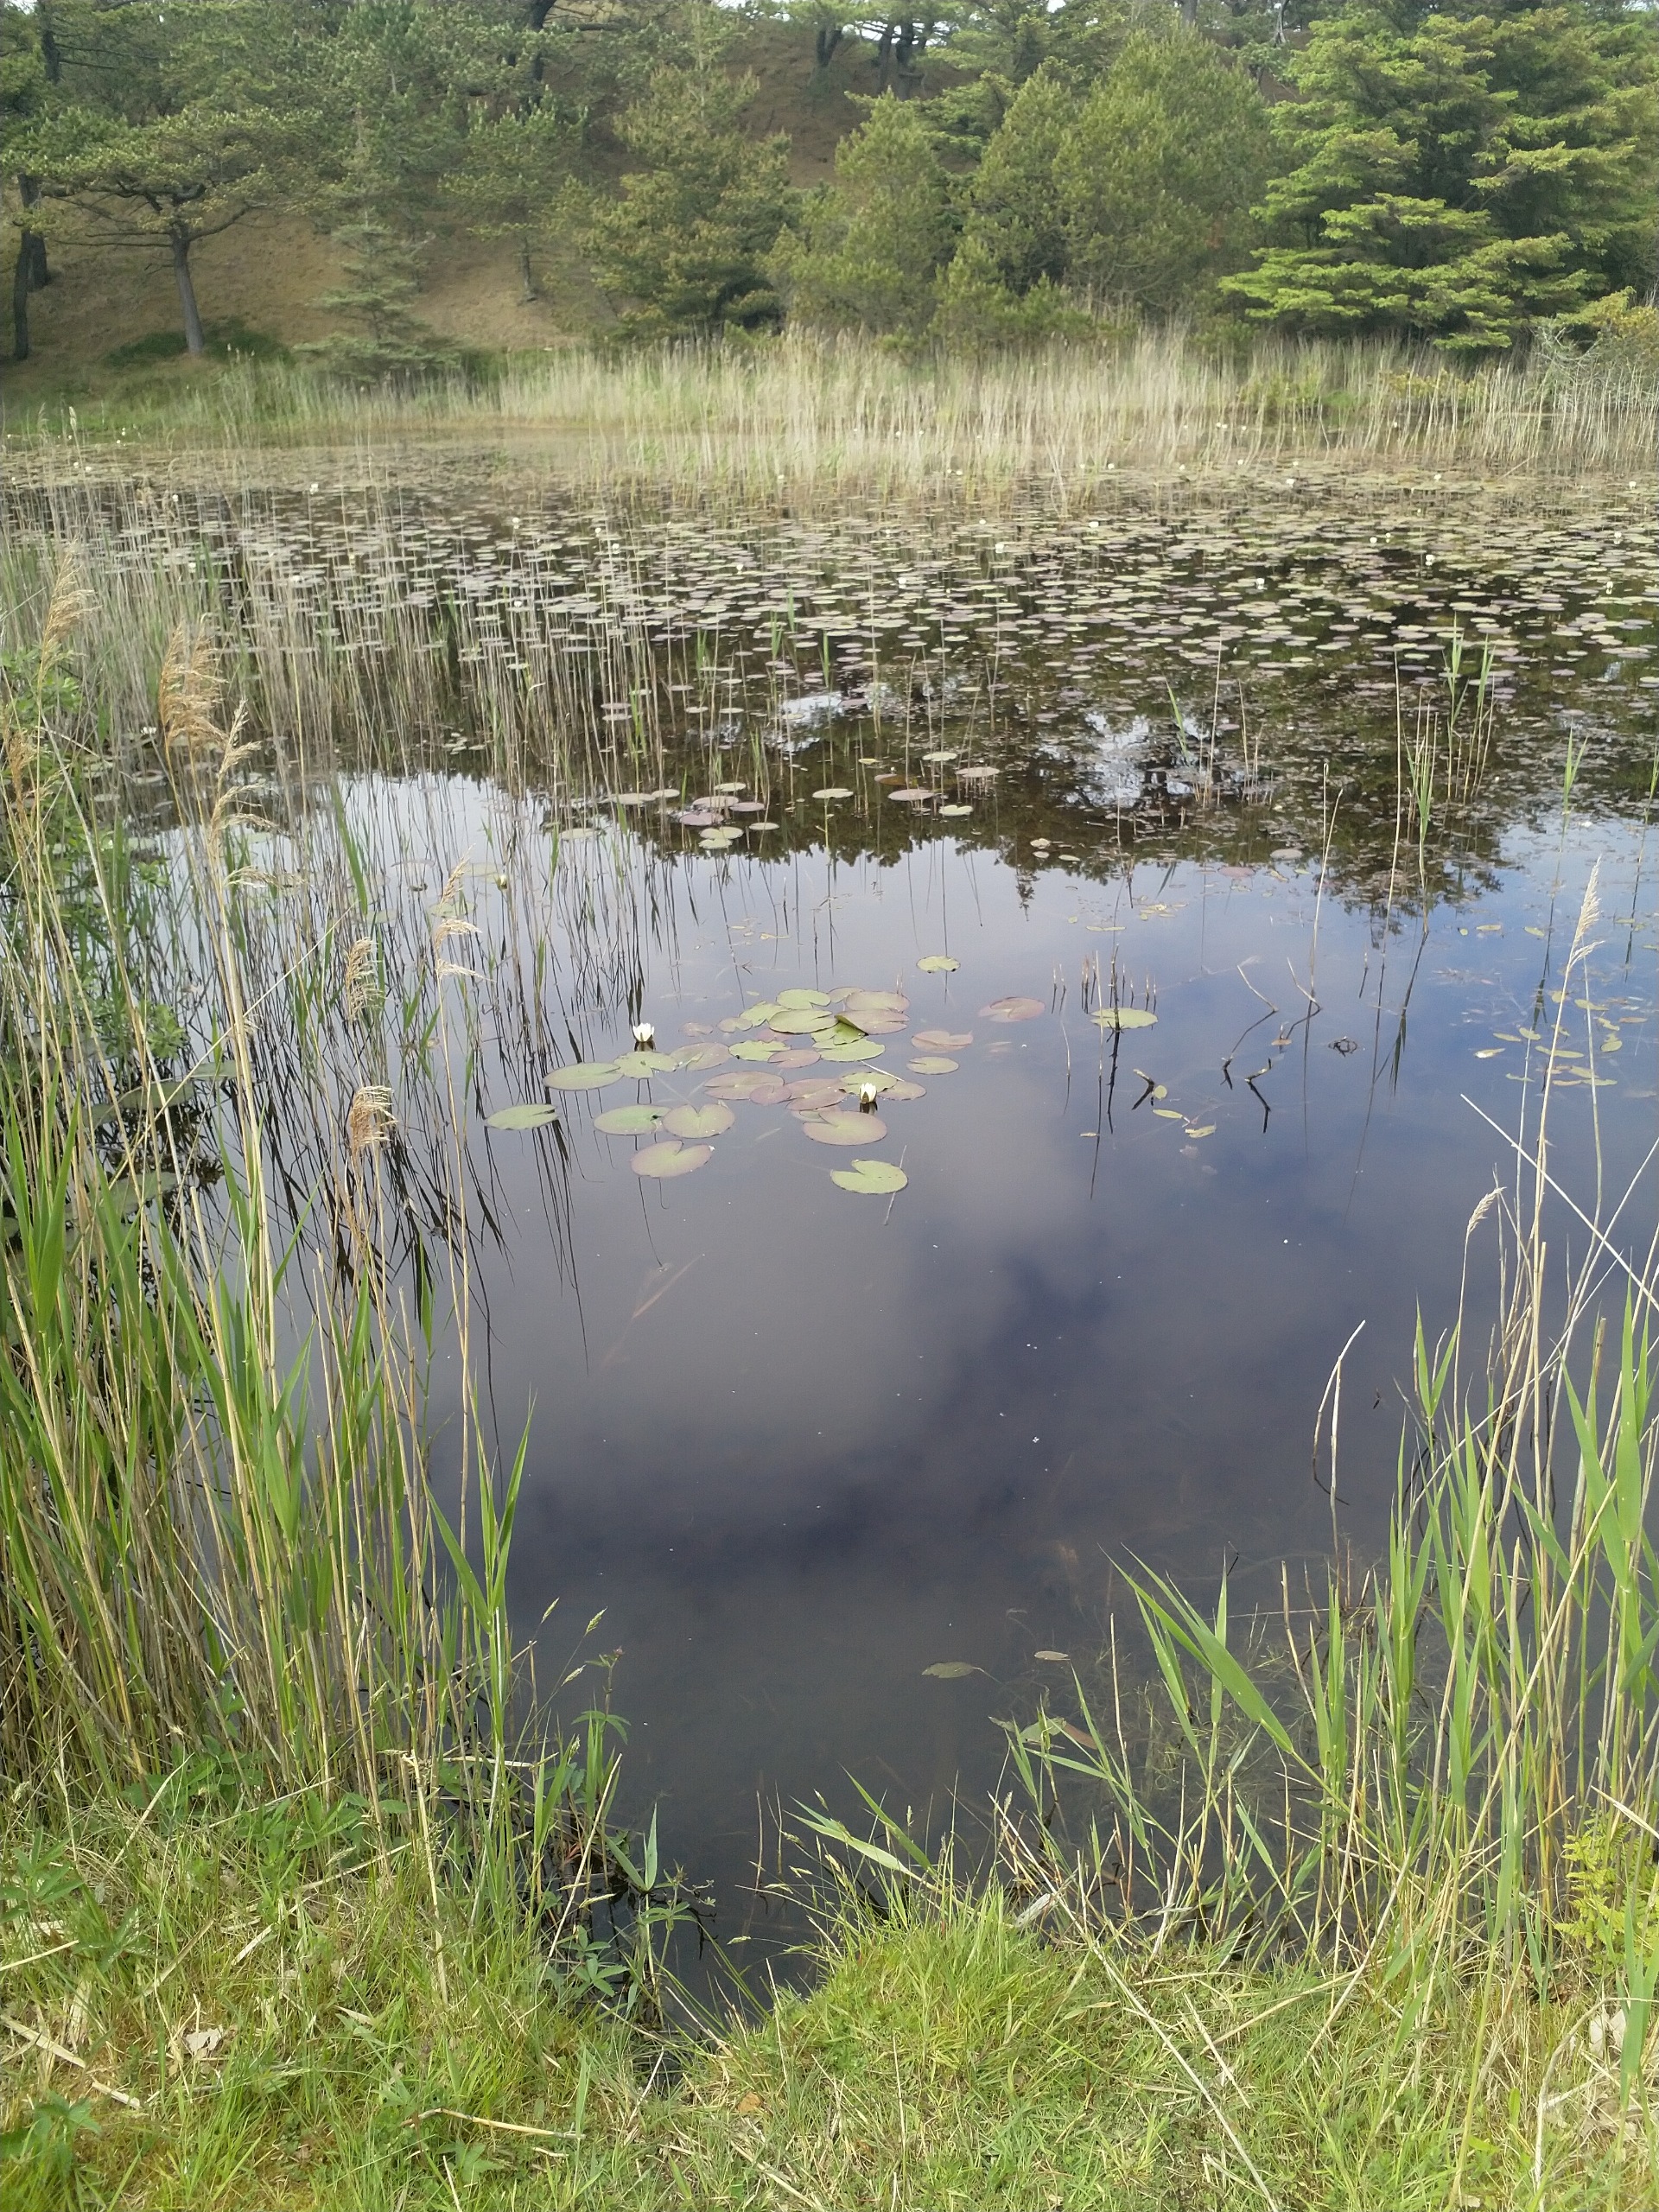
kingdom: Plantae
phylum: Tracheophyta
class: Magnoliopsida
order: Nymphaeales
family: Nymphaeaceae
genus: Nymphaea
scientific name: Nymphaea alba
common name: Hvid åkande
